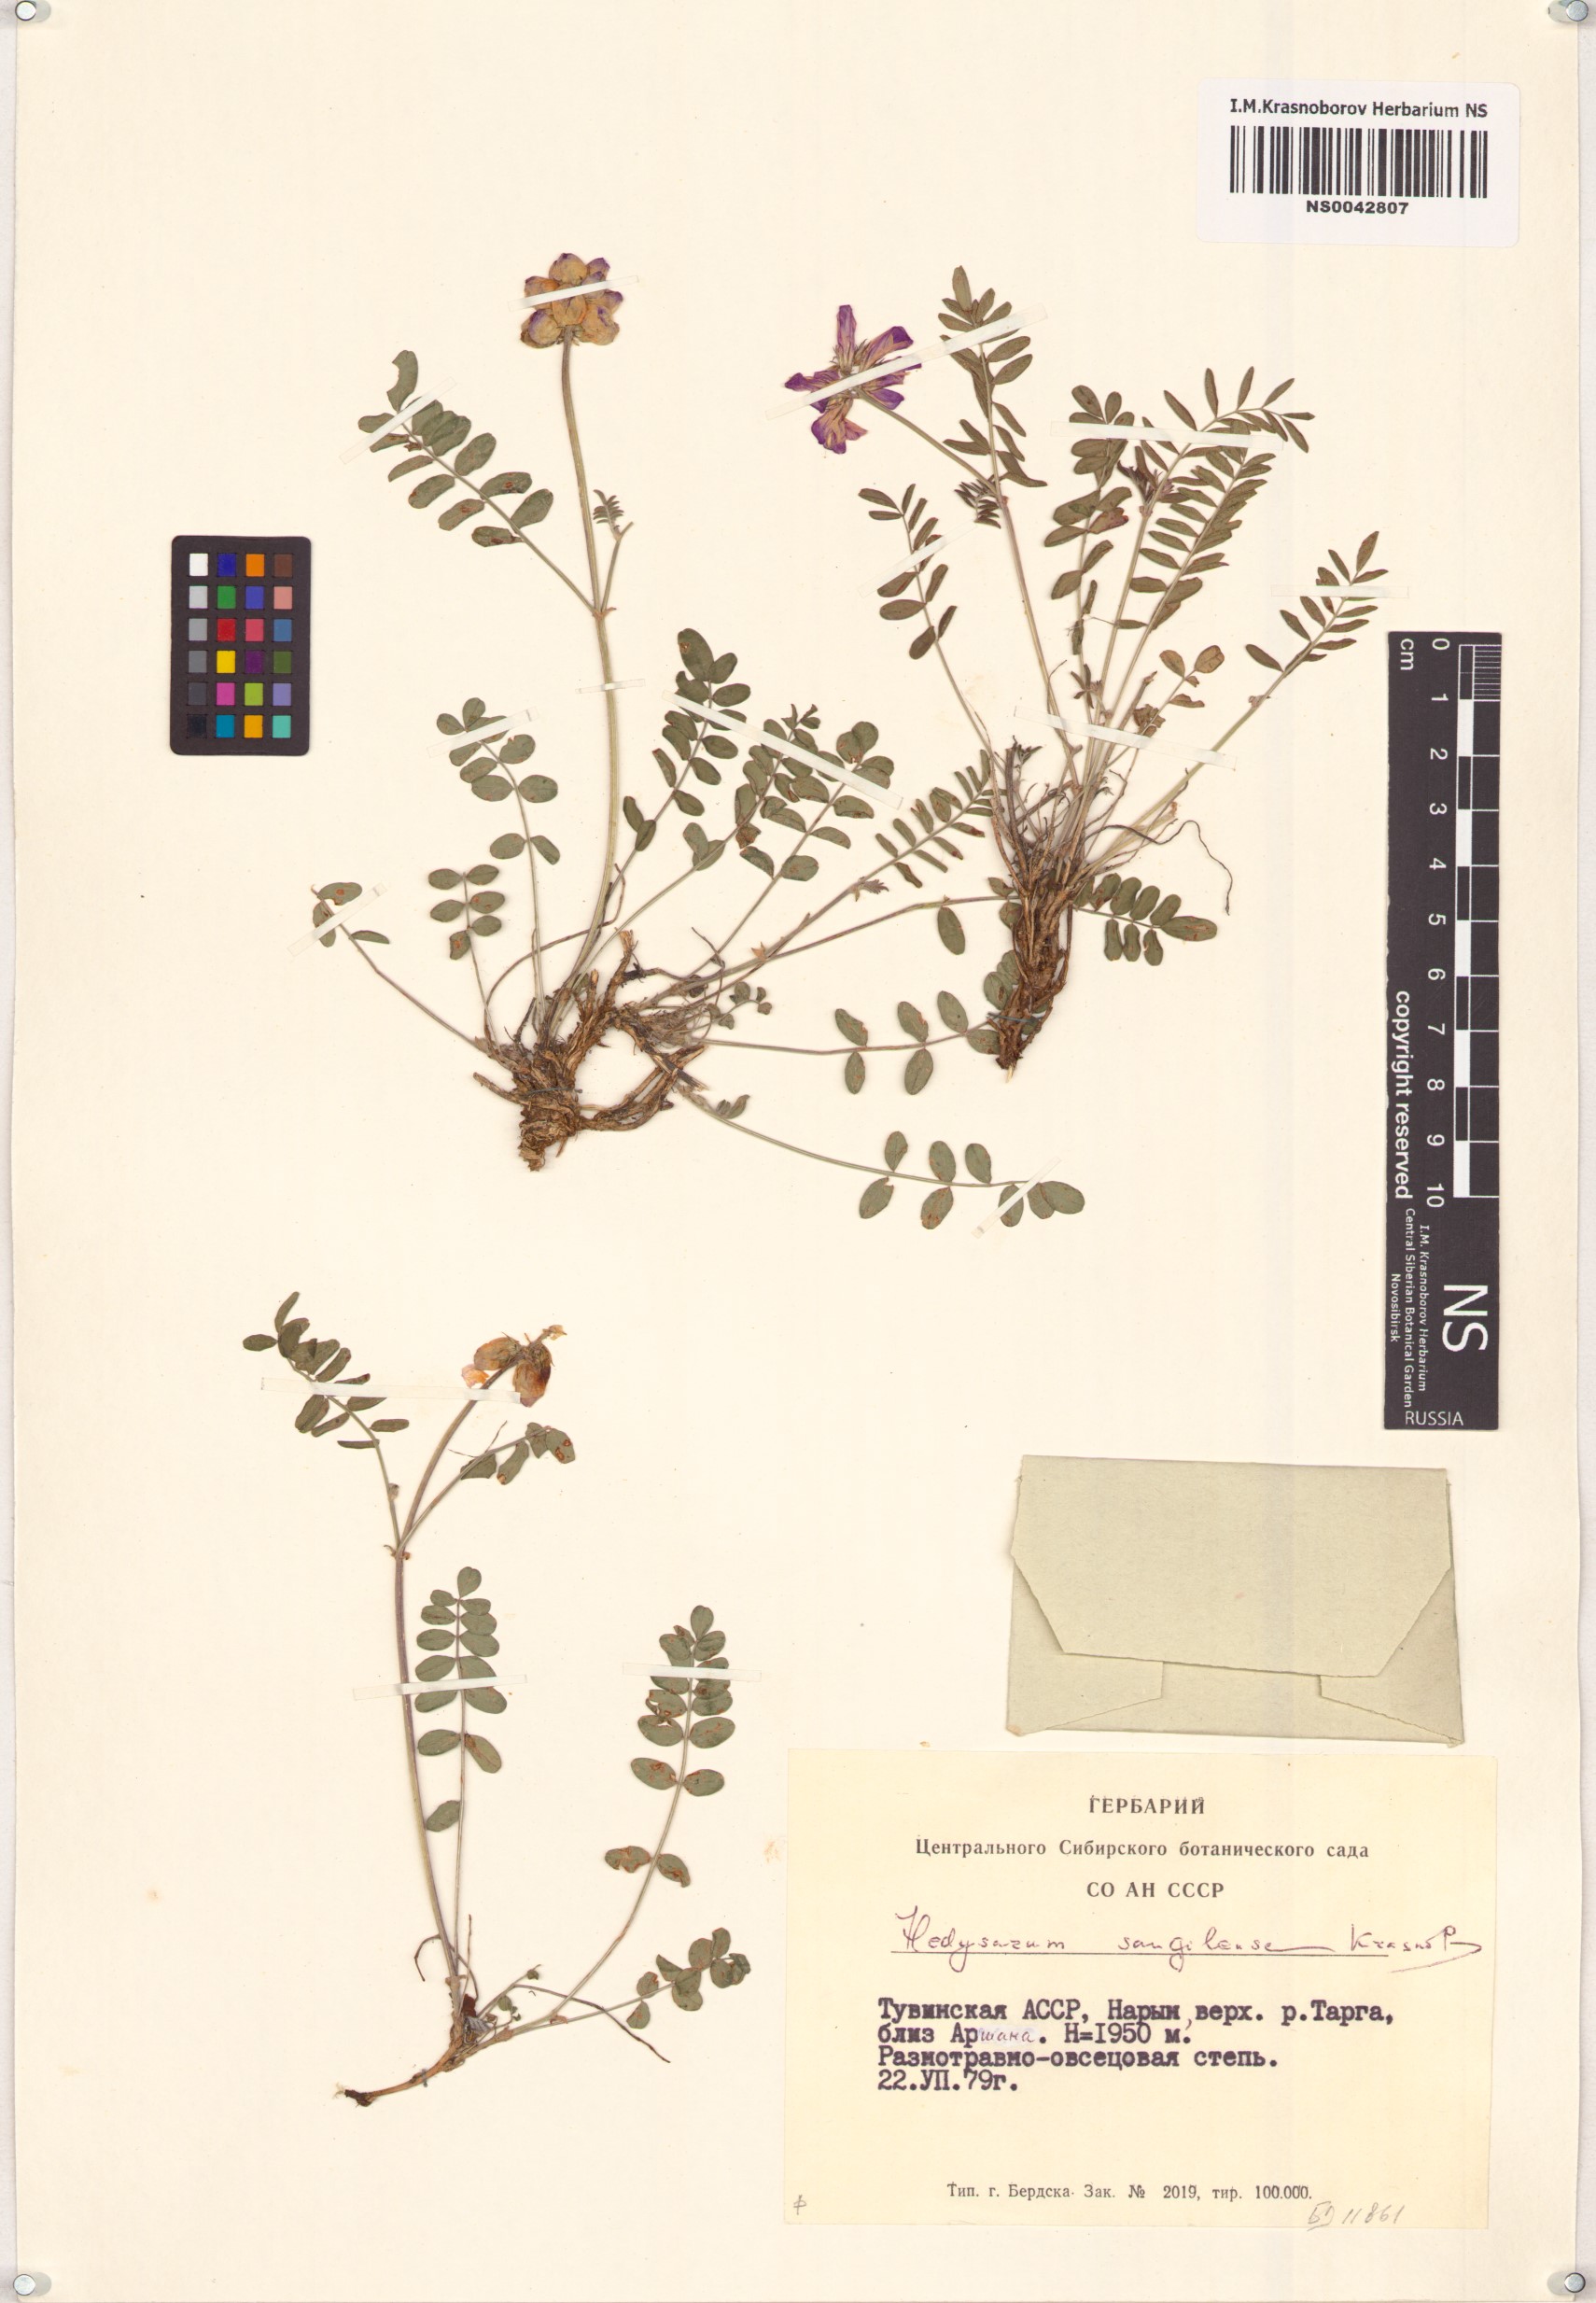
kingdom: Plantae
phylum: Tracheophyta
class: Magnoliopsida
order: Fabales
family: Fabaceae
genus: Hedysarum
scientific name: Hedysarum sangilense
